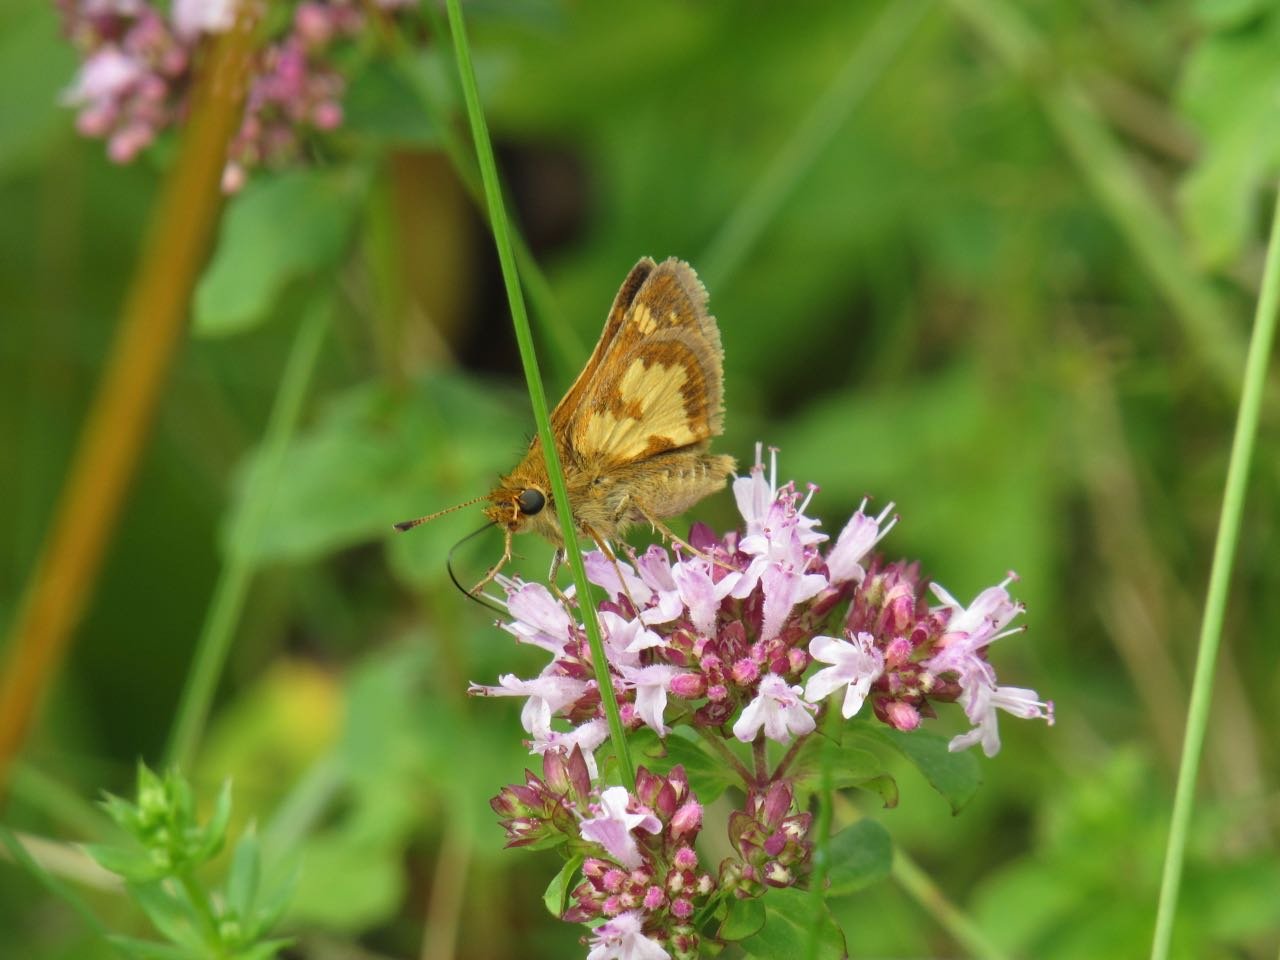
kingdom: Animalia
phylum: Arthropoda
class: Insecta
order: Lepidoptera
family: Hesperiidae
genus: Polites
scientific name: Polites coras
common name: Peck's Skipper
